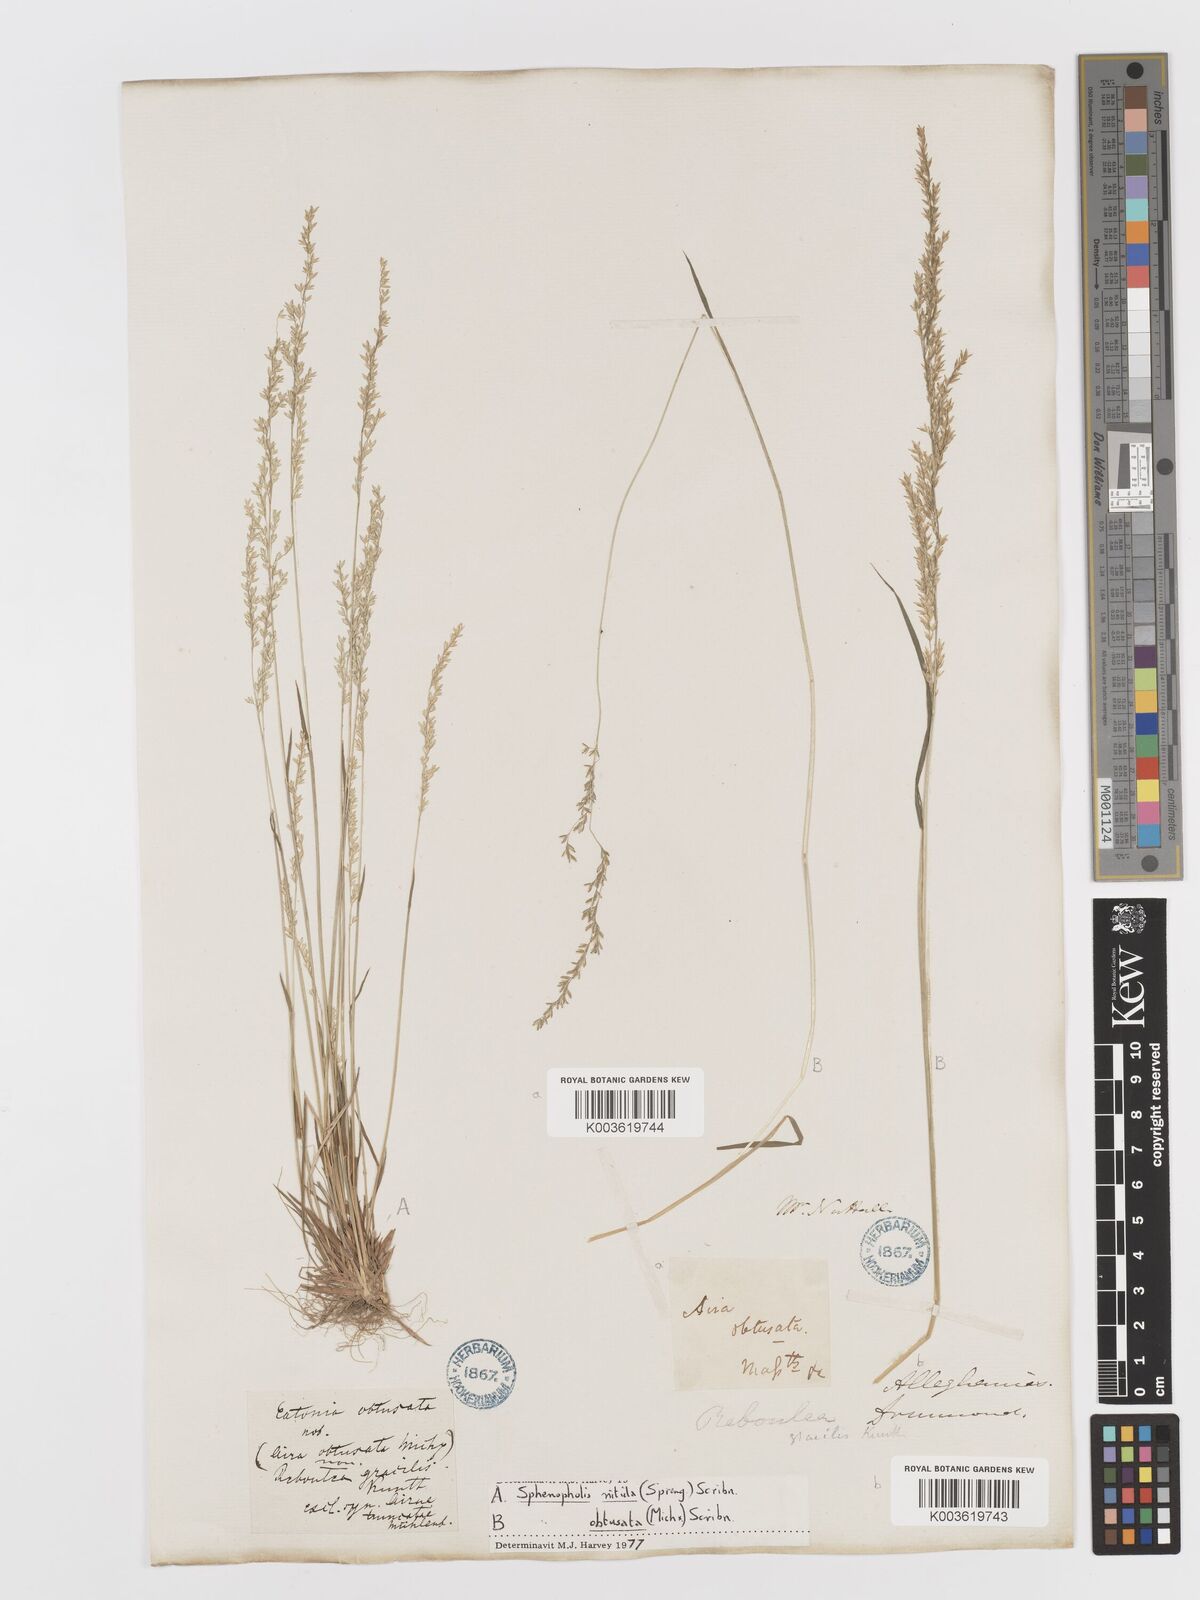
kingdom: Plantae
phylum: Tracheophyta
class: Liliopsida
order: Poales
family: Poaceae
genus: Sphenopholis
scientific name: Sphenopholis nitida
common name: Shiny wedgegrass
